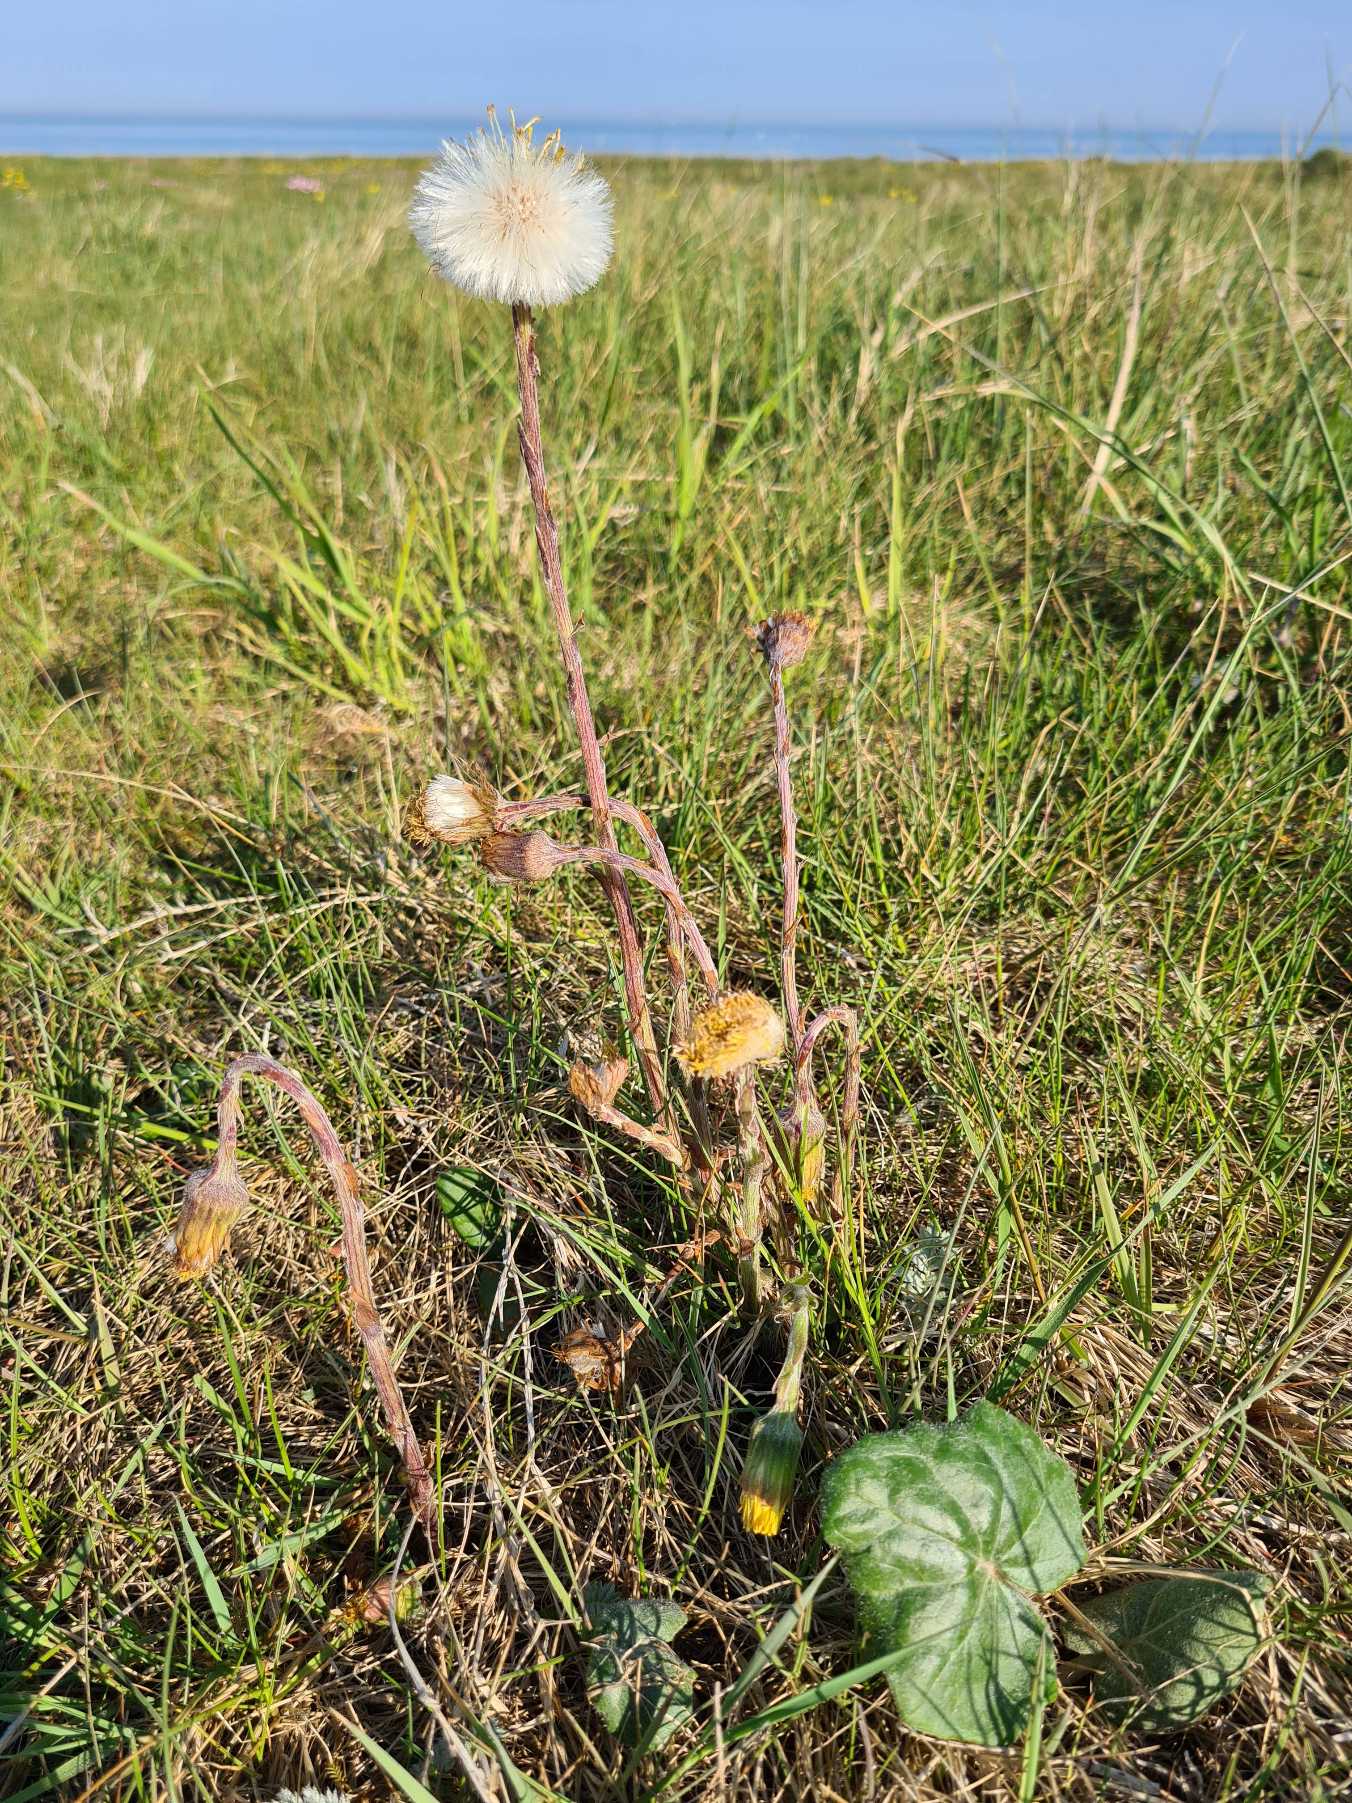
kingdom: Plantae
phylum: Tracheophyta
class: Magnoliopsida
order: Asterales
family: Asteraceae
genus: Tussilago
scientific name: Tussilago farfara
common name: Følfod
